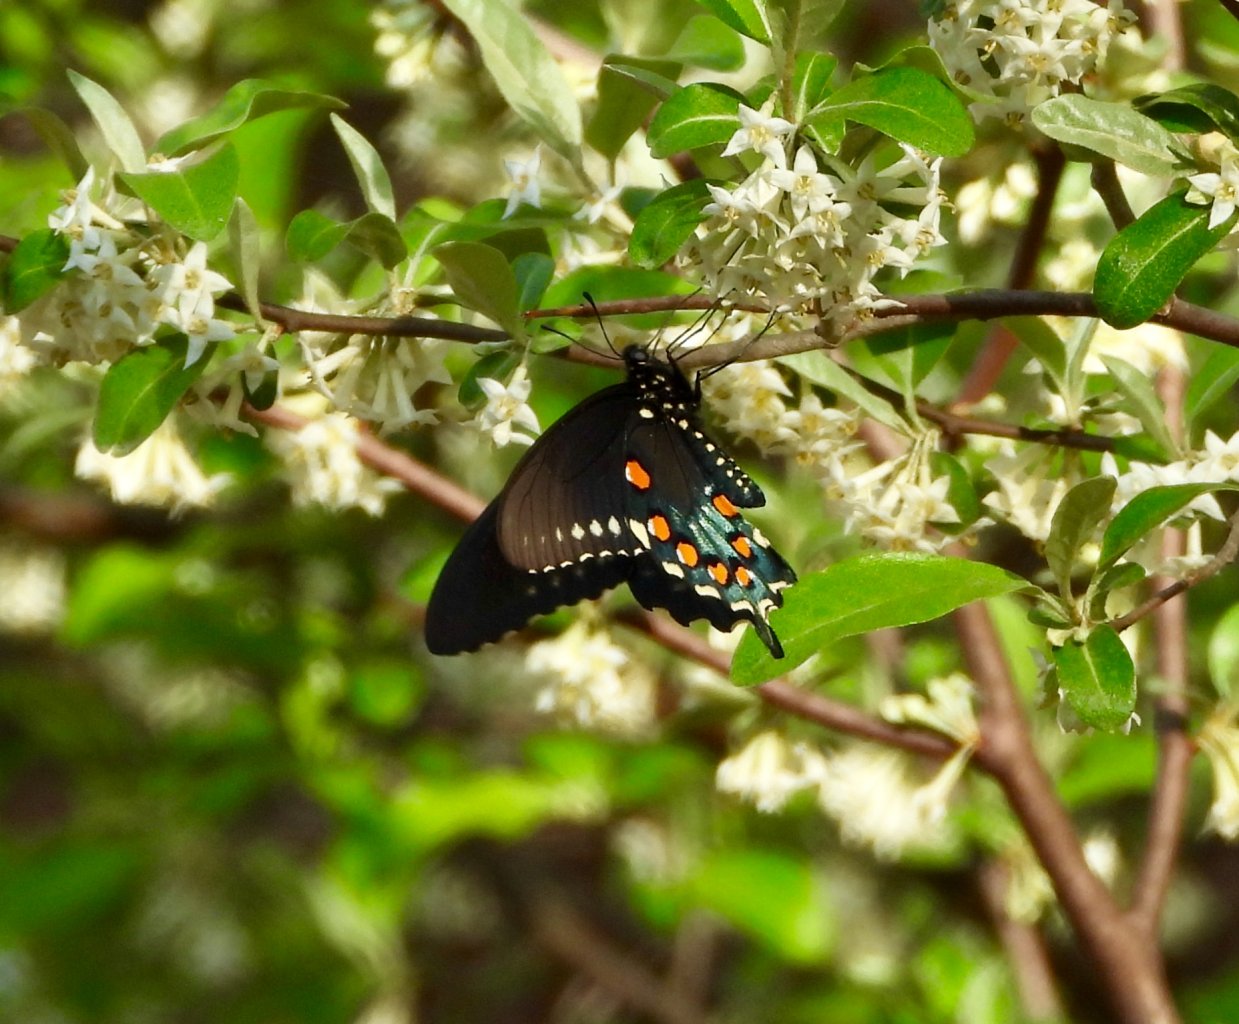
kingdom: Animalia
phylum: Arthropoda
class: Insecta
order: Lepidoptera
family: Papilionidae
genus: Battus
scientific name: Battus philenor
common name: Pipevine Swallowtail
